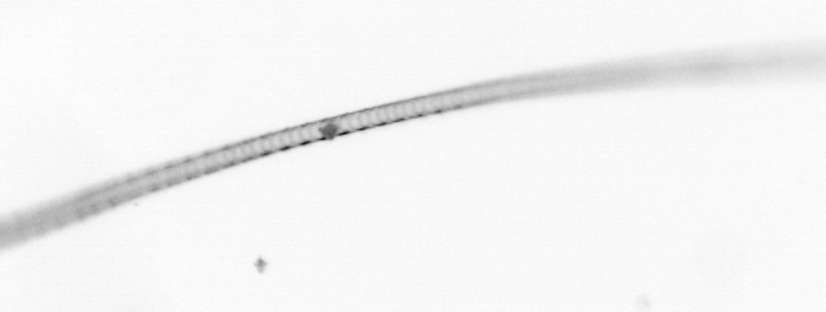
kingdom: Chromista
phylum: Ochrophyta
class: Bacillariophyceae
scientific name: Bacillariophyceae
